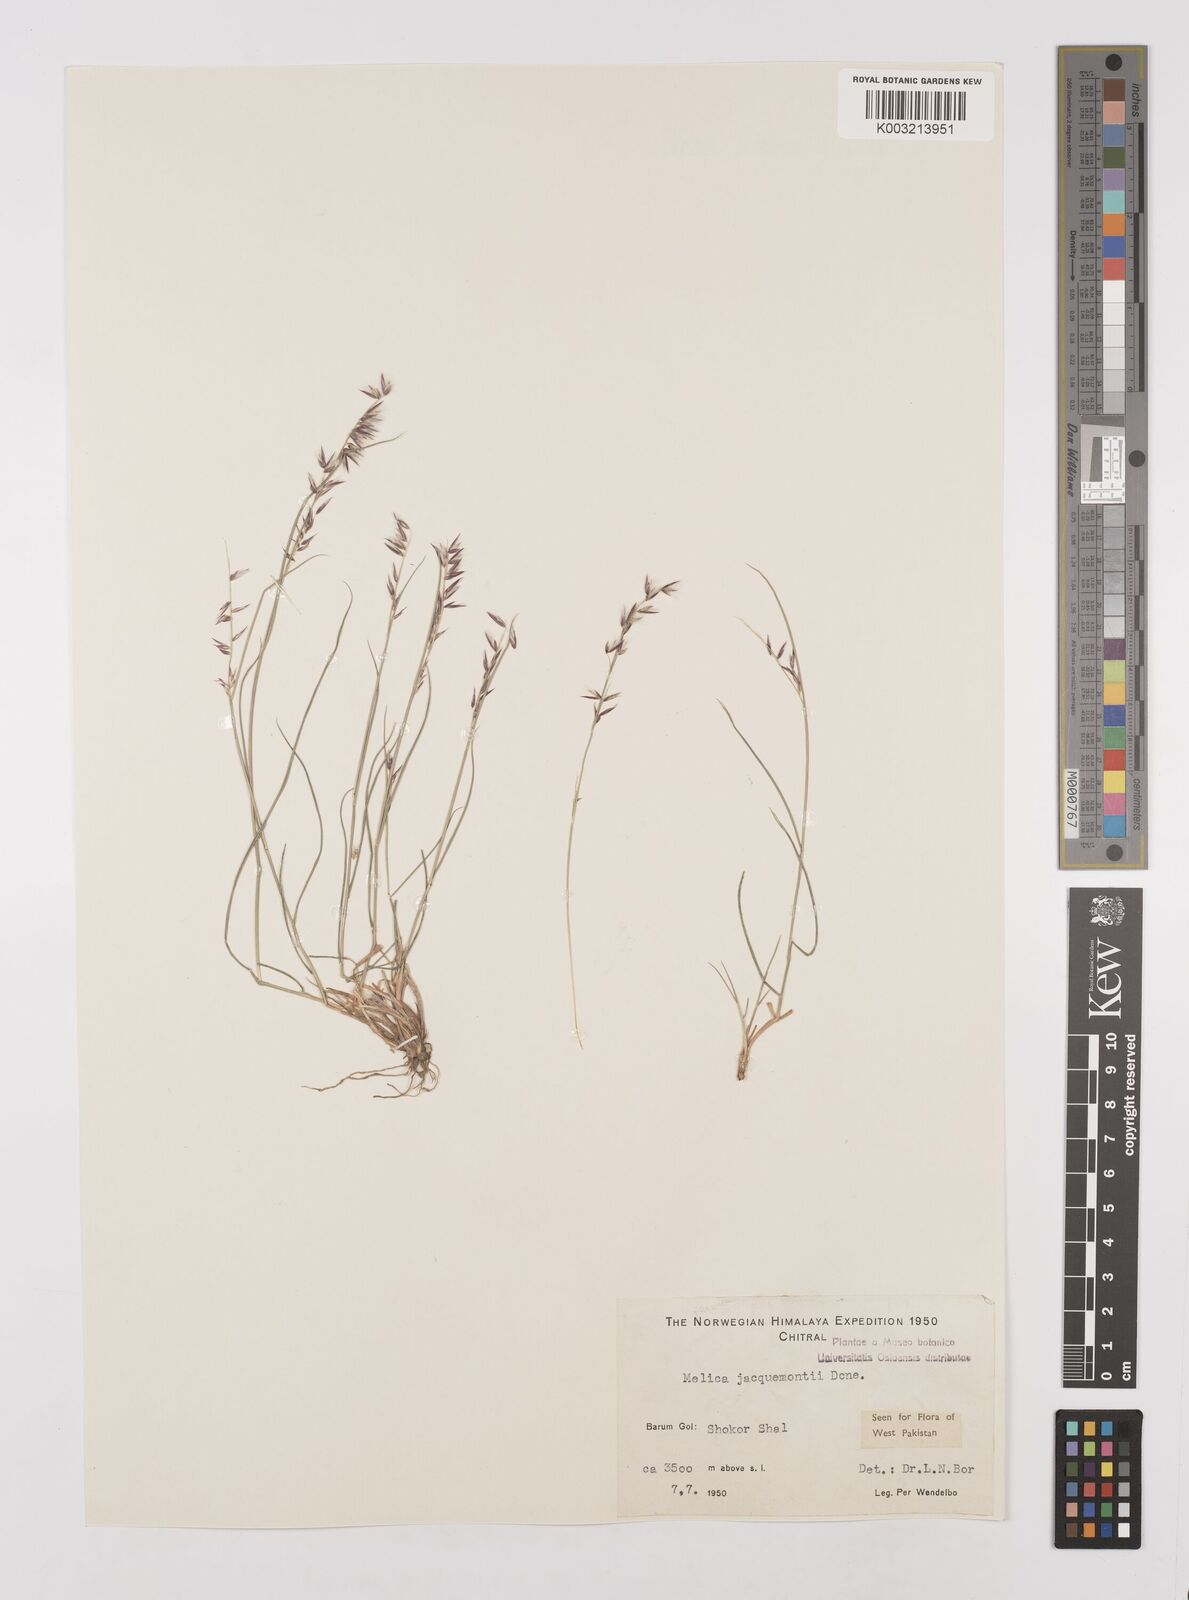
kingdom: Plantae
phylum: Tracheophyta
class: Liliopsida
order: Poales
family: Poaceae
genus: Melica
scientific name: Melica persica
